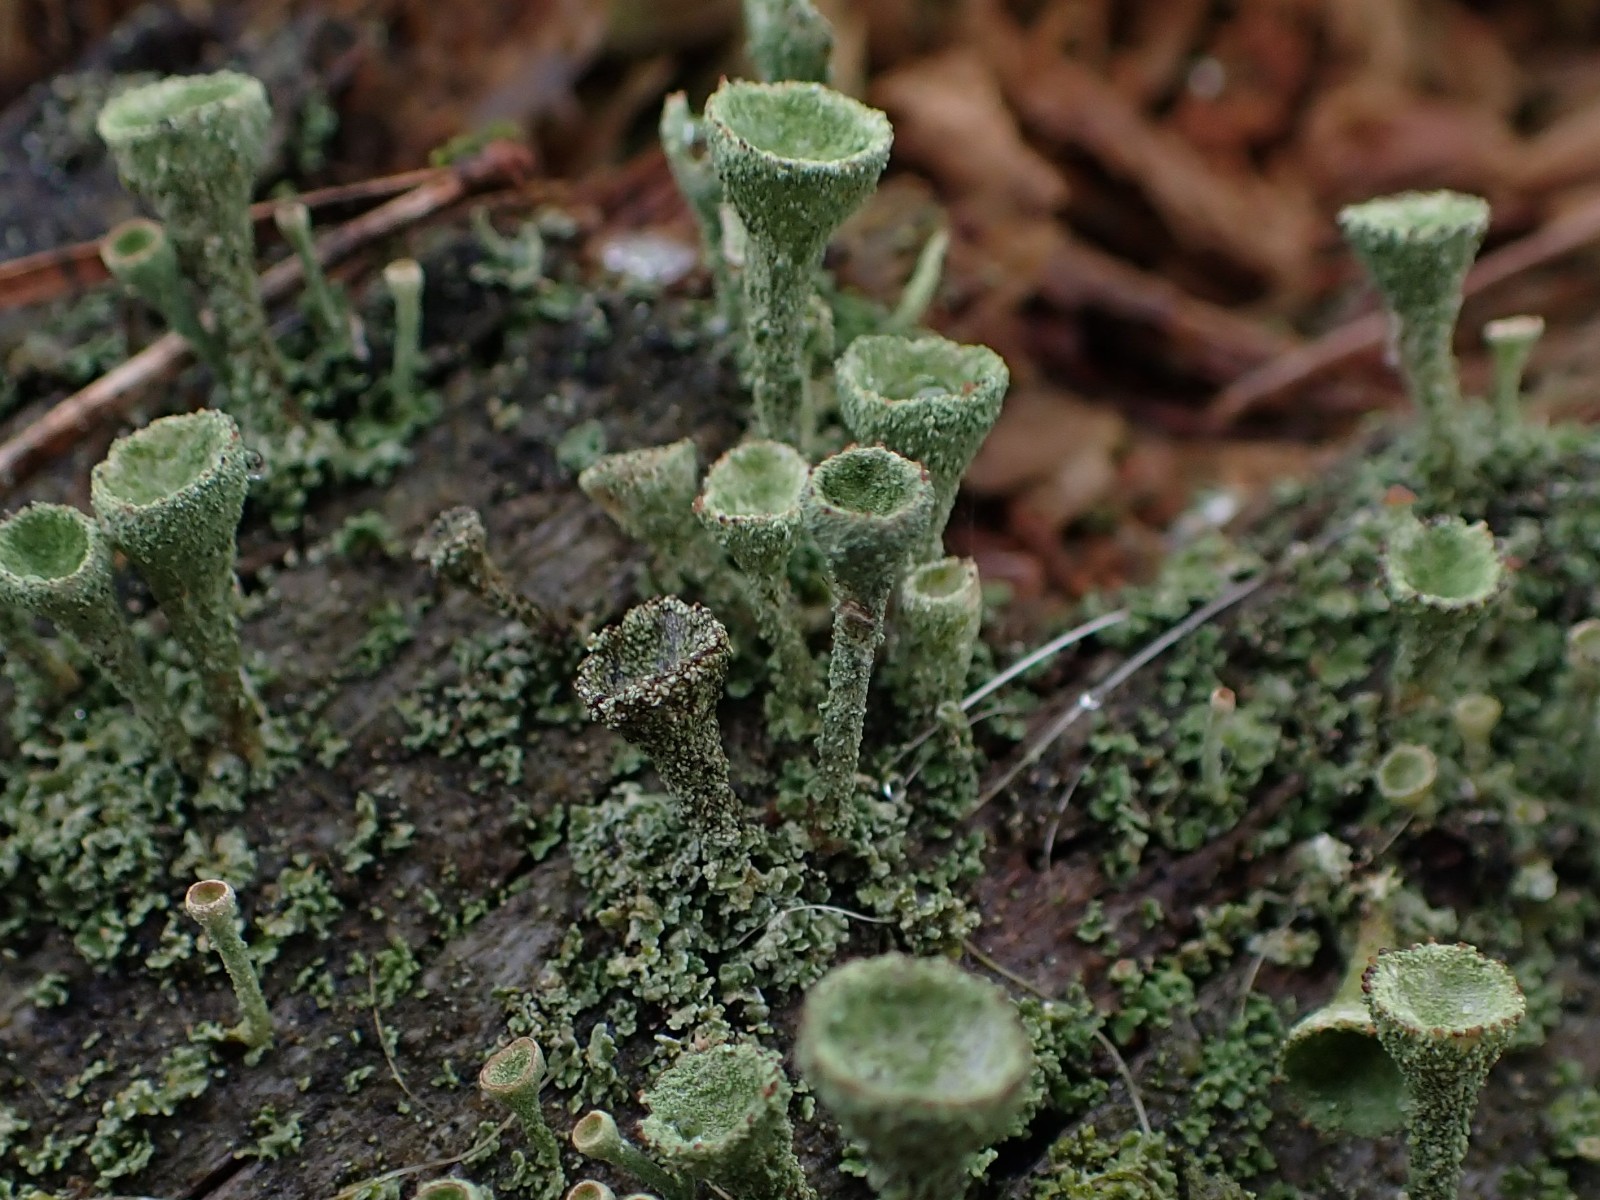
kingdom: Fungi
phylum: Ascomycota
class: Lecanoromycetes
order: Lecanorales
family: Cladoniaceae
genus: Cladonia
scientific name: Cladonia
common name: brungrøn bægerlav
